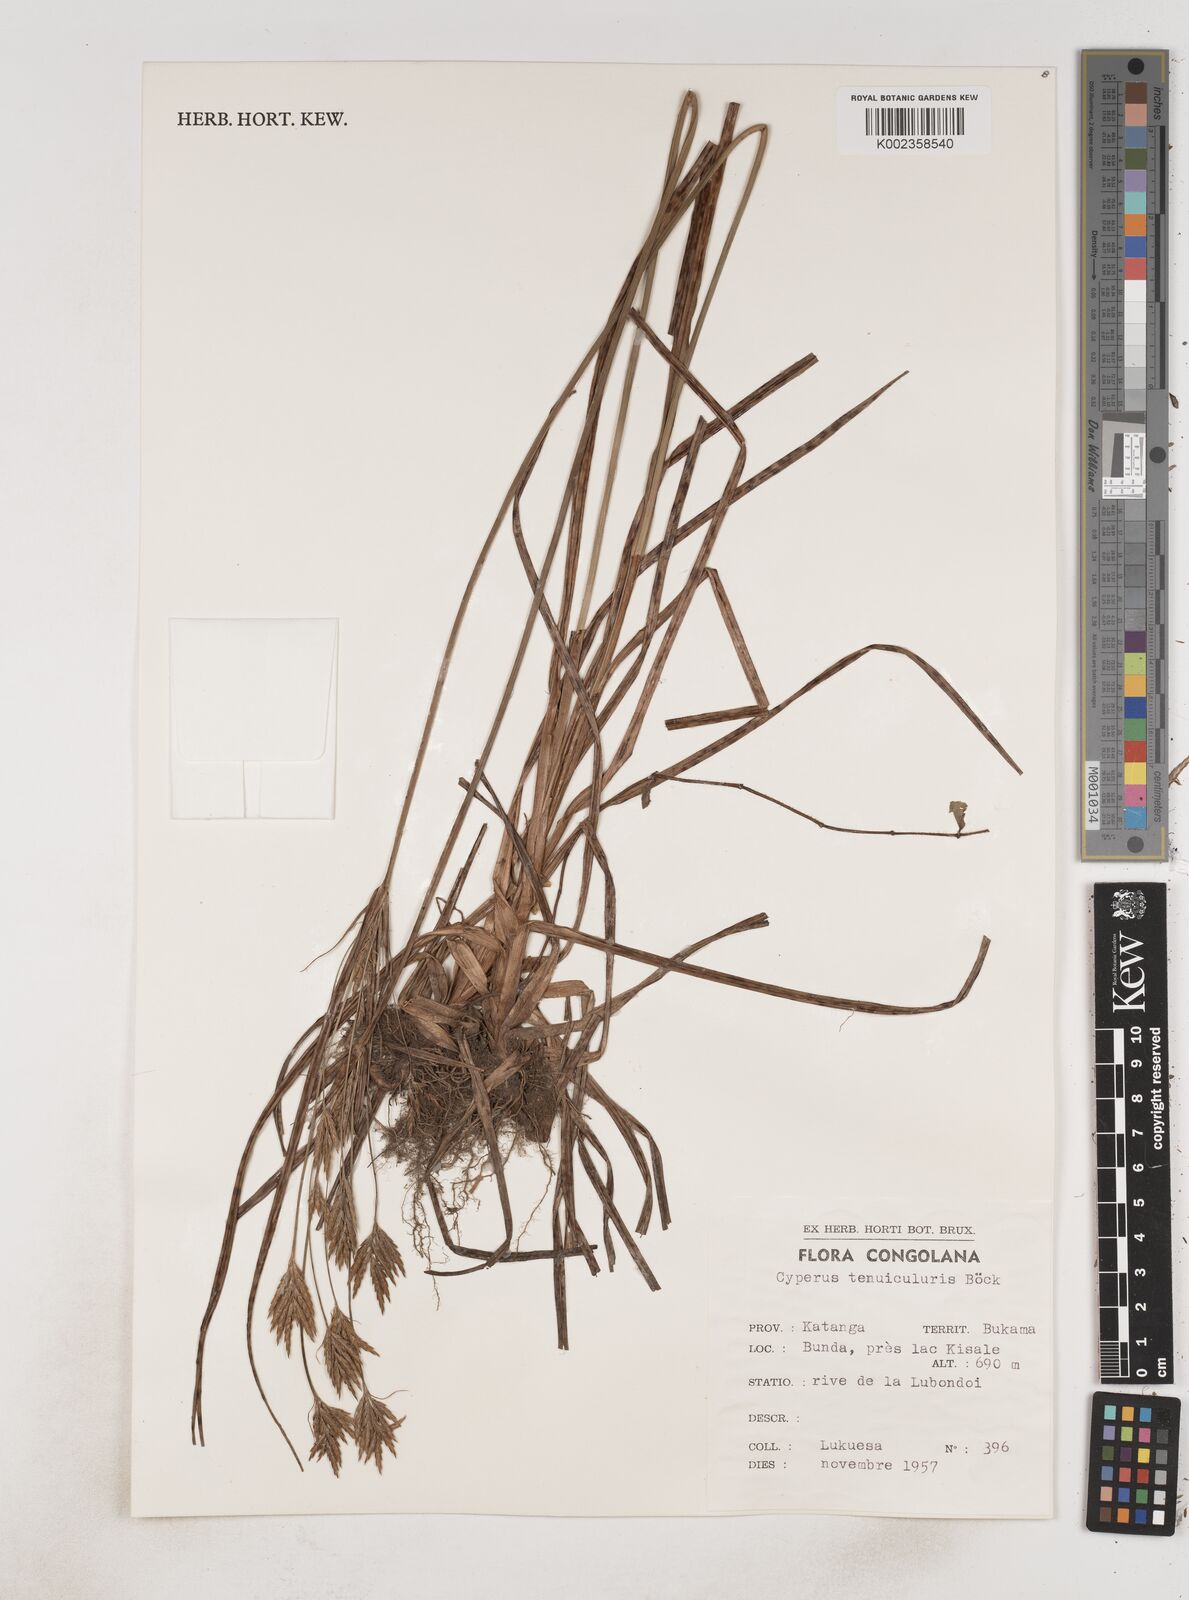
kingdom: Plantae
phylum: Tracheophyta
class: Liliopsida
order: Poales
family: Cyperaceae
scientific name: Cyperaceae
